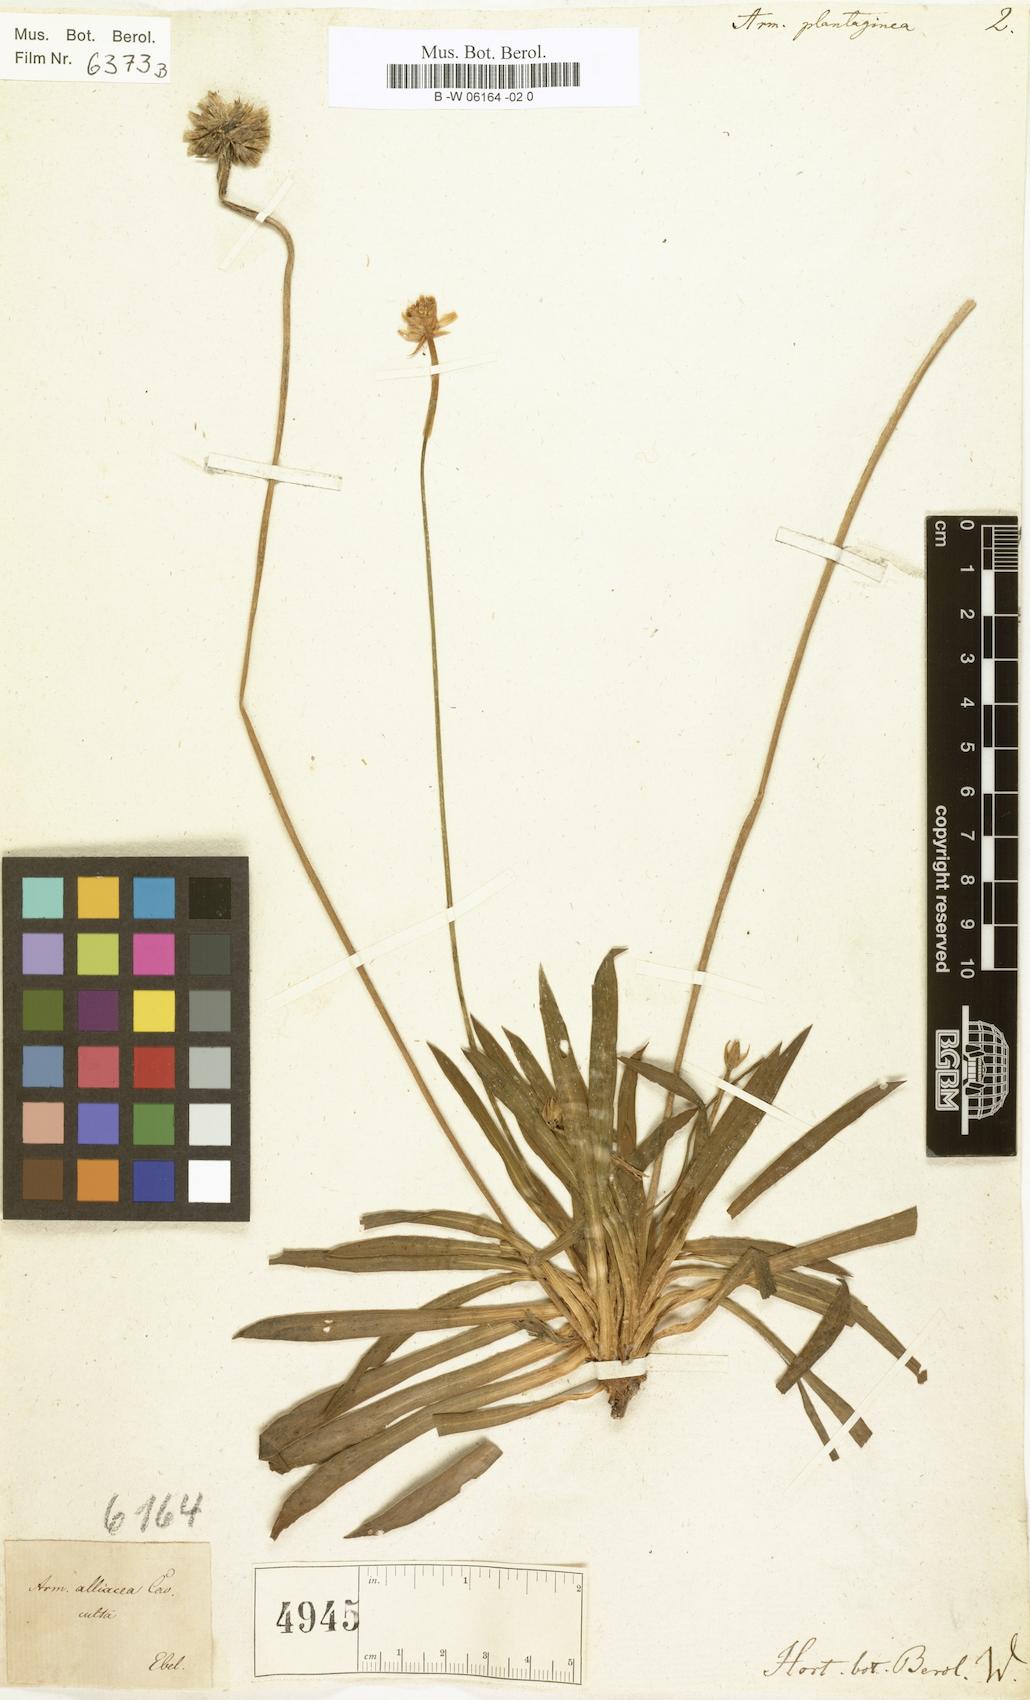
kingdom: Plantae
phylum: Tracheophyta
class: Magnoliopsida
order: Caryophyllales
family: Plumbaginaceae
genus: Armeria
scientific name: Armeria arenaria
